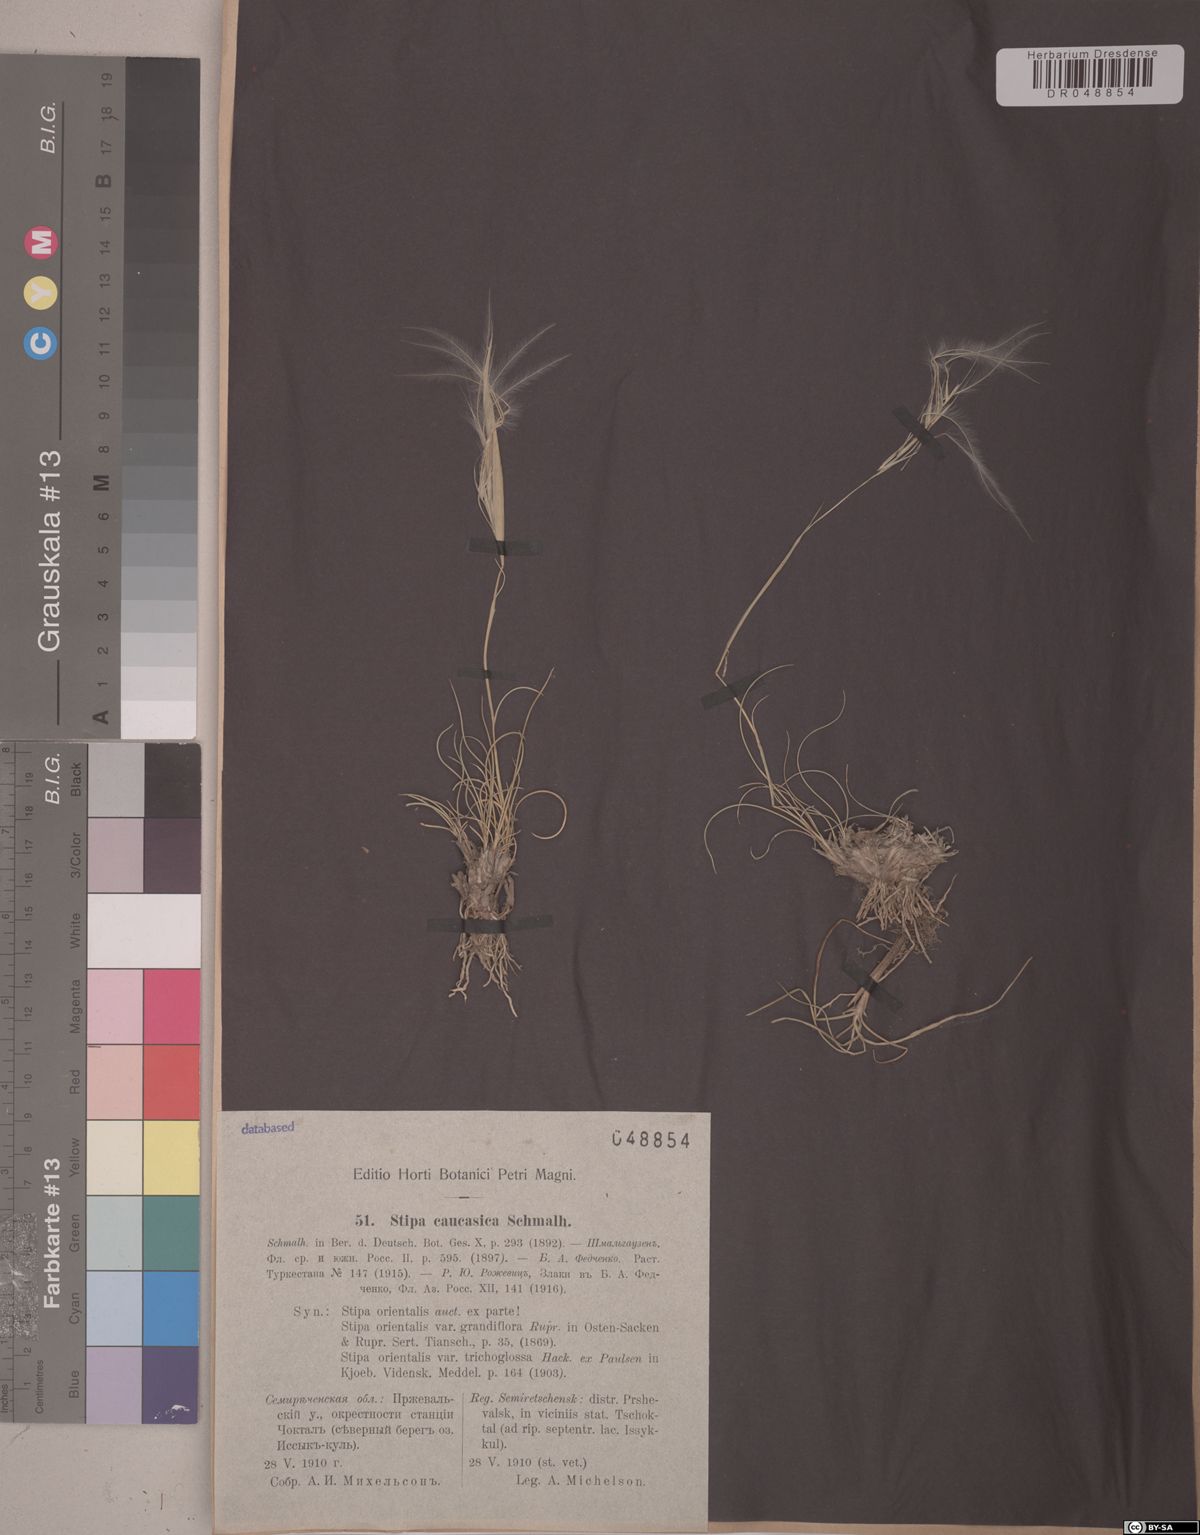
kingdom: Plantae
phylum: Tracheophyta
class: Liliopsida
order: Poales
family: Poaceae
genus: Stipa
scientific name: Stipa caucasica
